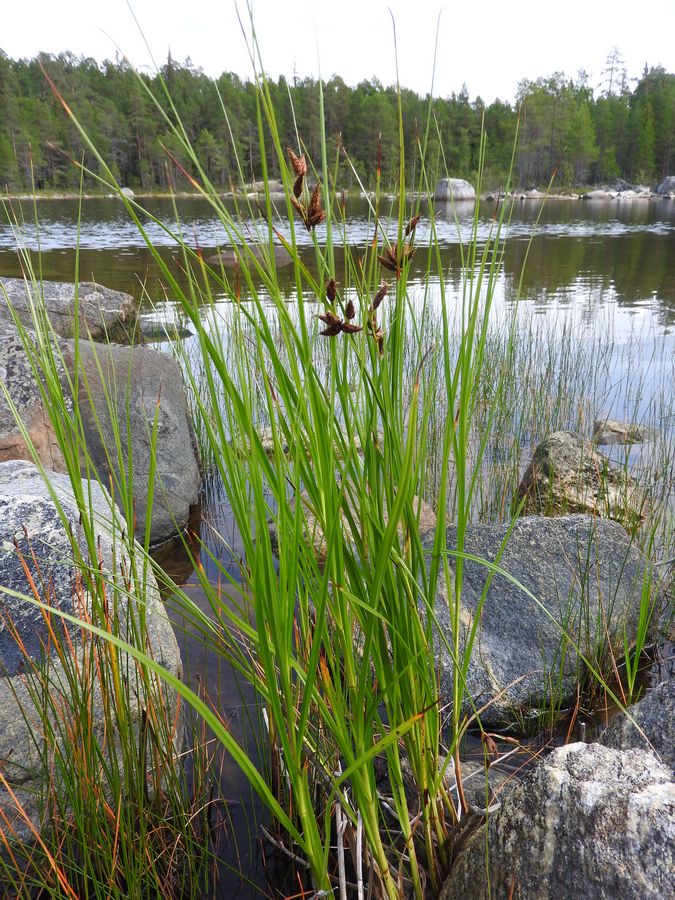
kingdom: Plantae
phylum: Tracheophyta
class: Liliopsida
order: Poales
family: Cyperaceae
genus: Bolboschoenus
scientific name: Bolboschoenus maritimus
